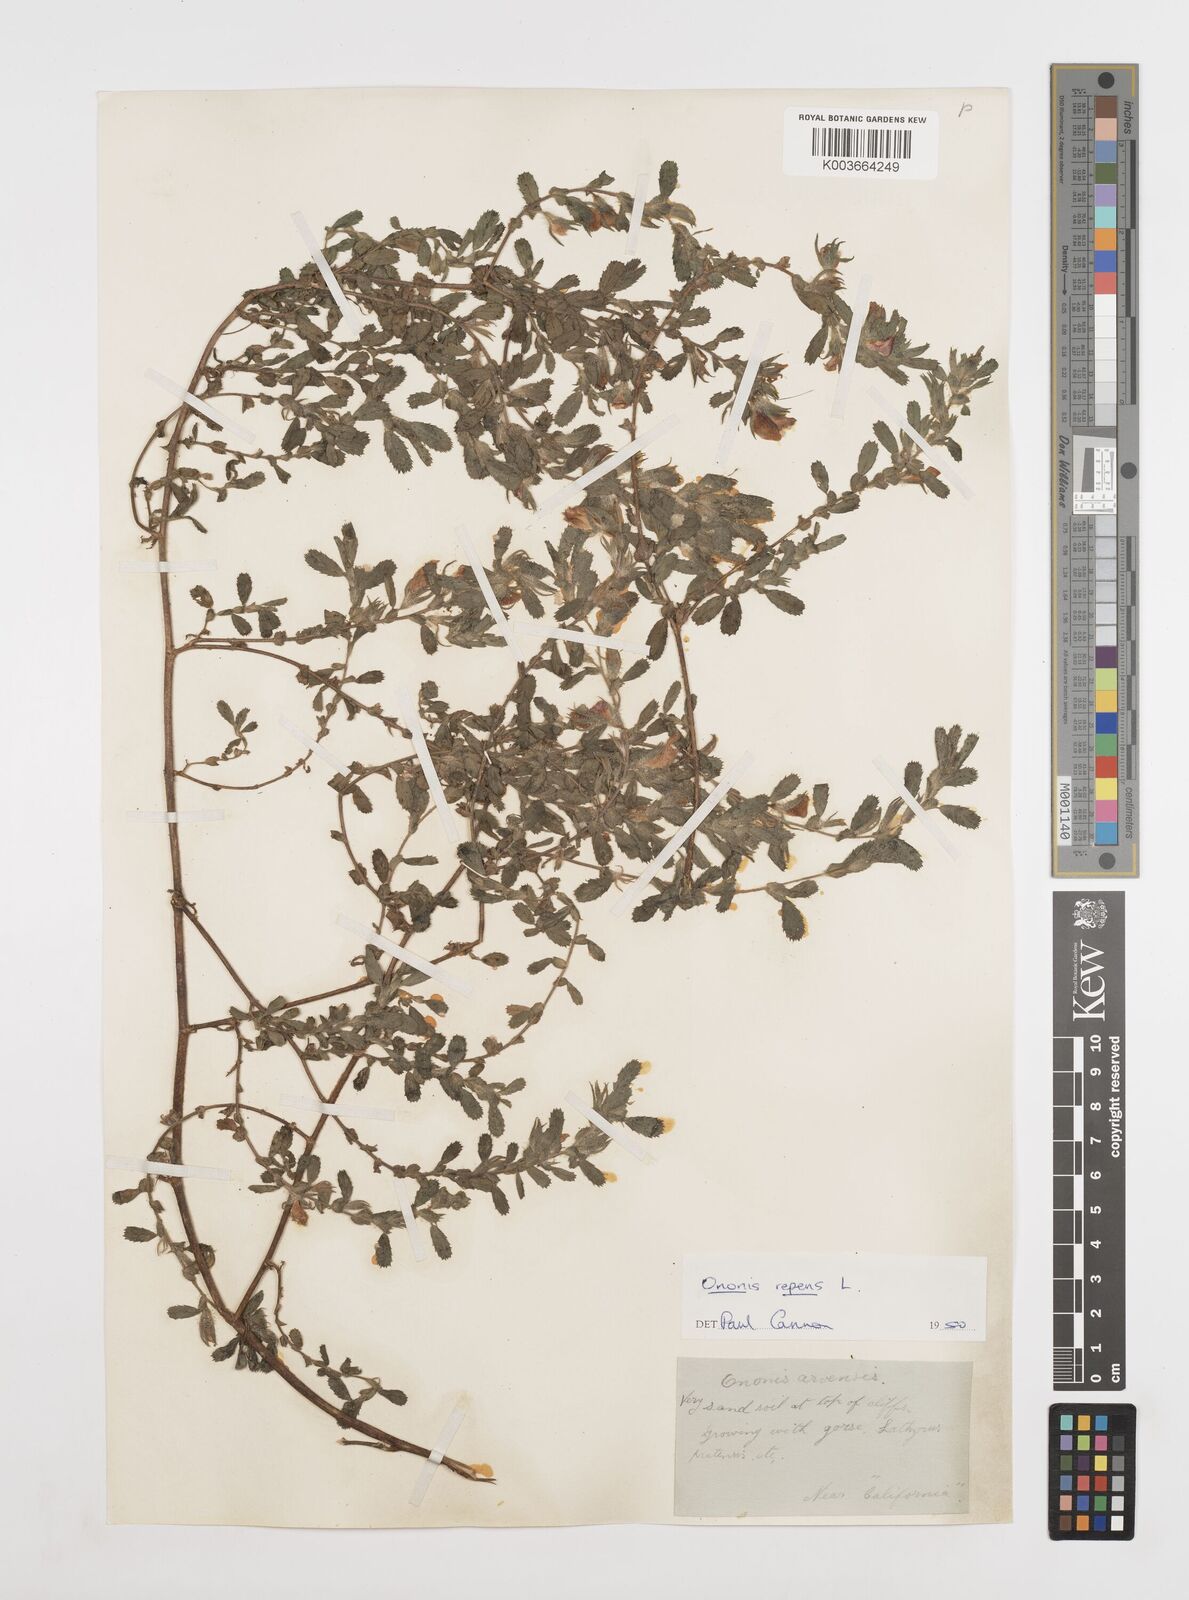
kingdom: Plantae
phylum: Tracheophyta
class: Magnoliopsida
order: Fabales
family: Fabaceae
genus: Ononis
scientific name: Ononis spinosa
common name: Spiny restharrow
